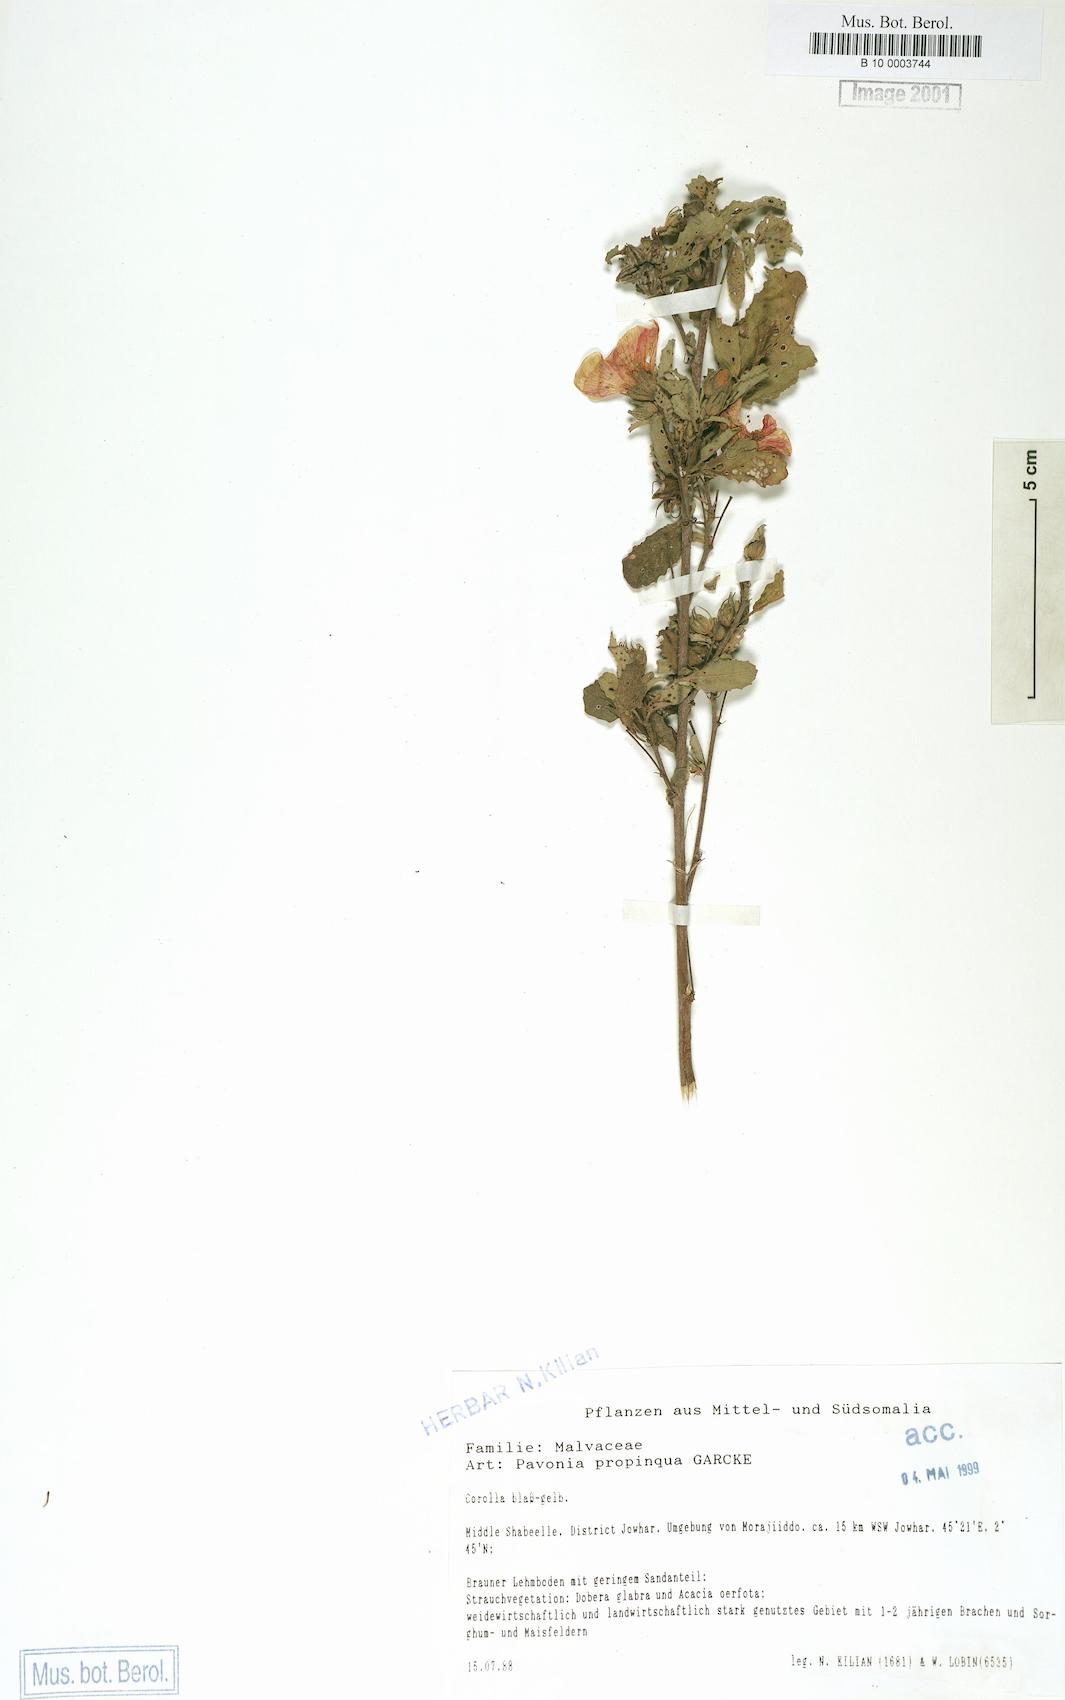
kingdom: Plantae
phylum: Tracheophyta
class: Magnoliopsida
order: Malvales
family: Malvaceae
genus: Pavonia
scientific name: Pavonia propinqua
